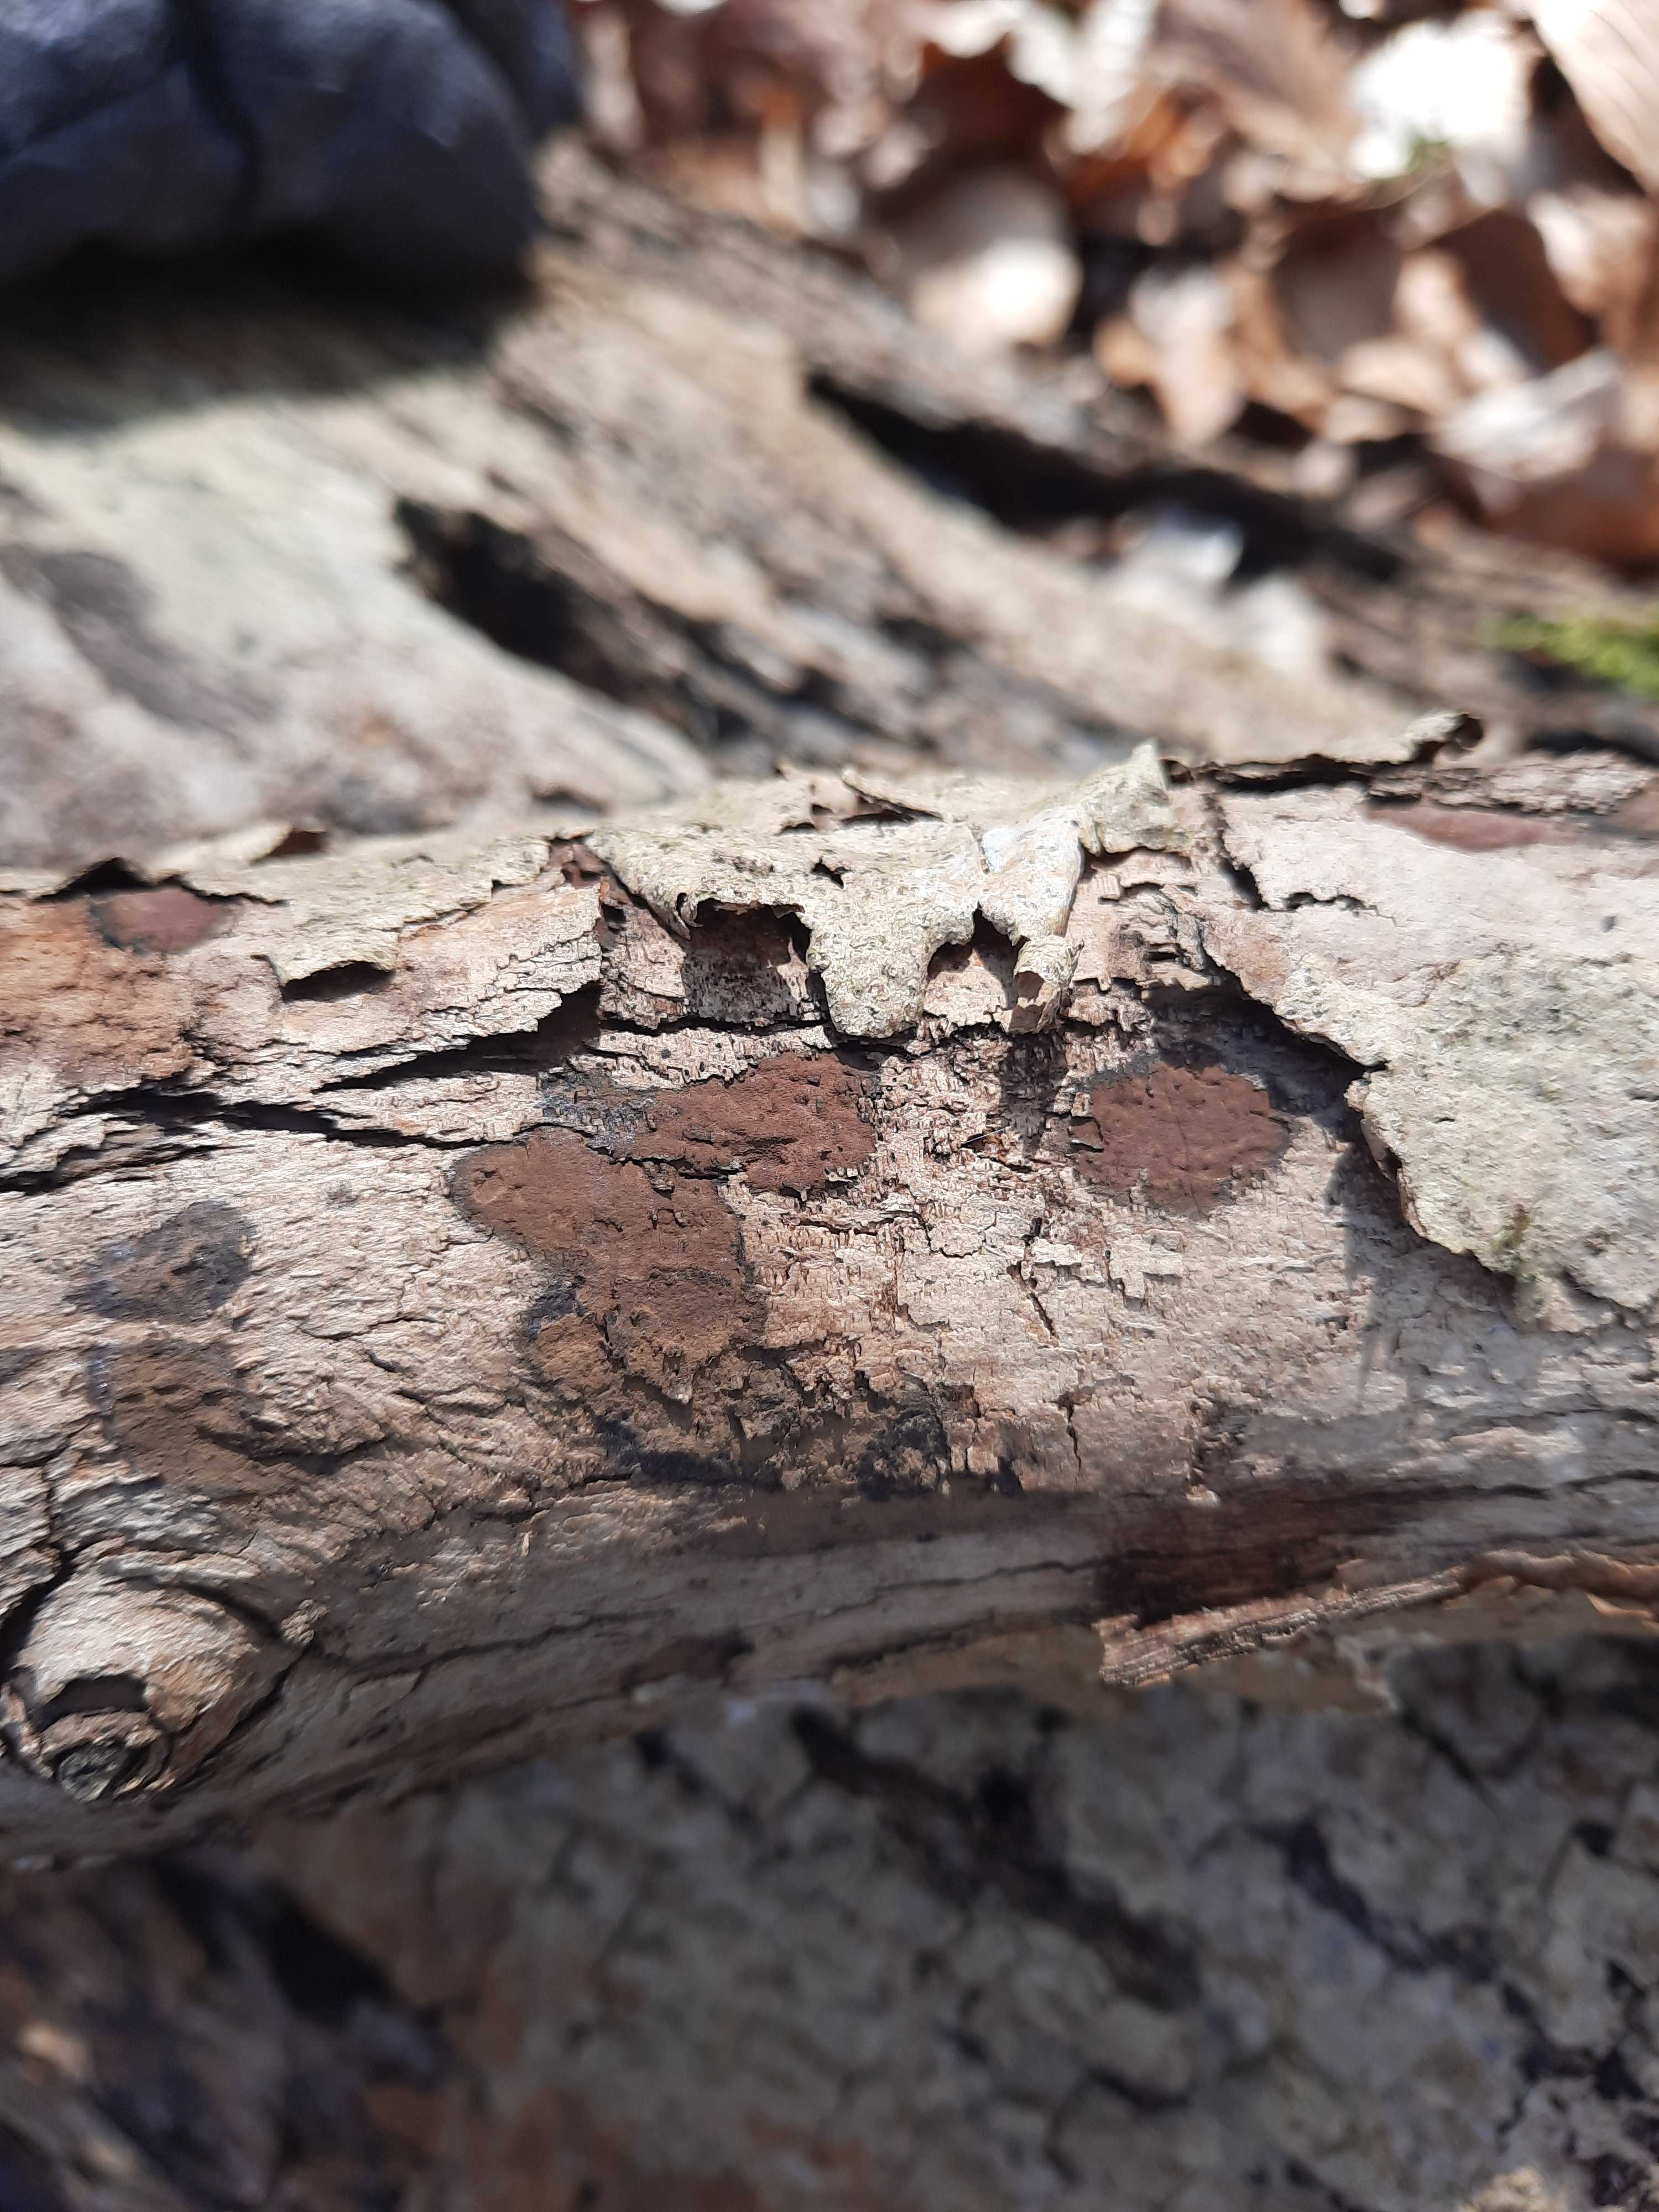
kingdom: Fungi
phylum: Ascomycota
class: Sordariomycetes
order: Xylariales
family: Hypoxylaceae
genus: Hypoxylon
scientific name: Hypoxylon petriniae
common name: nedsænket kulbær
